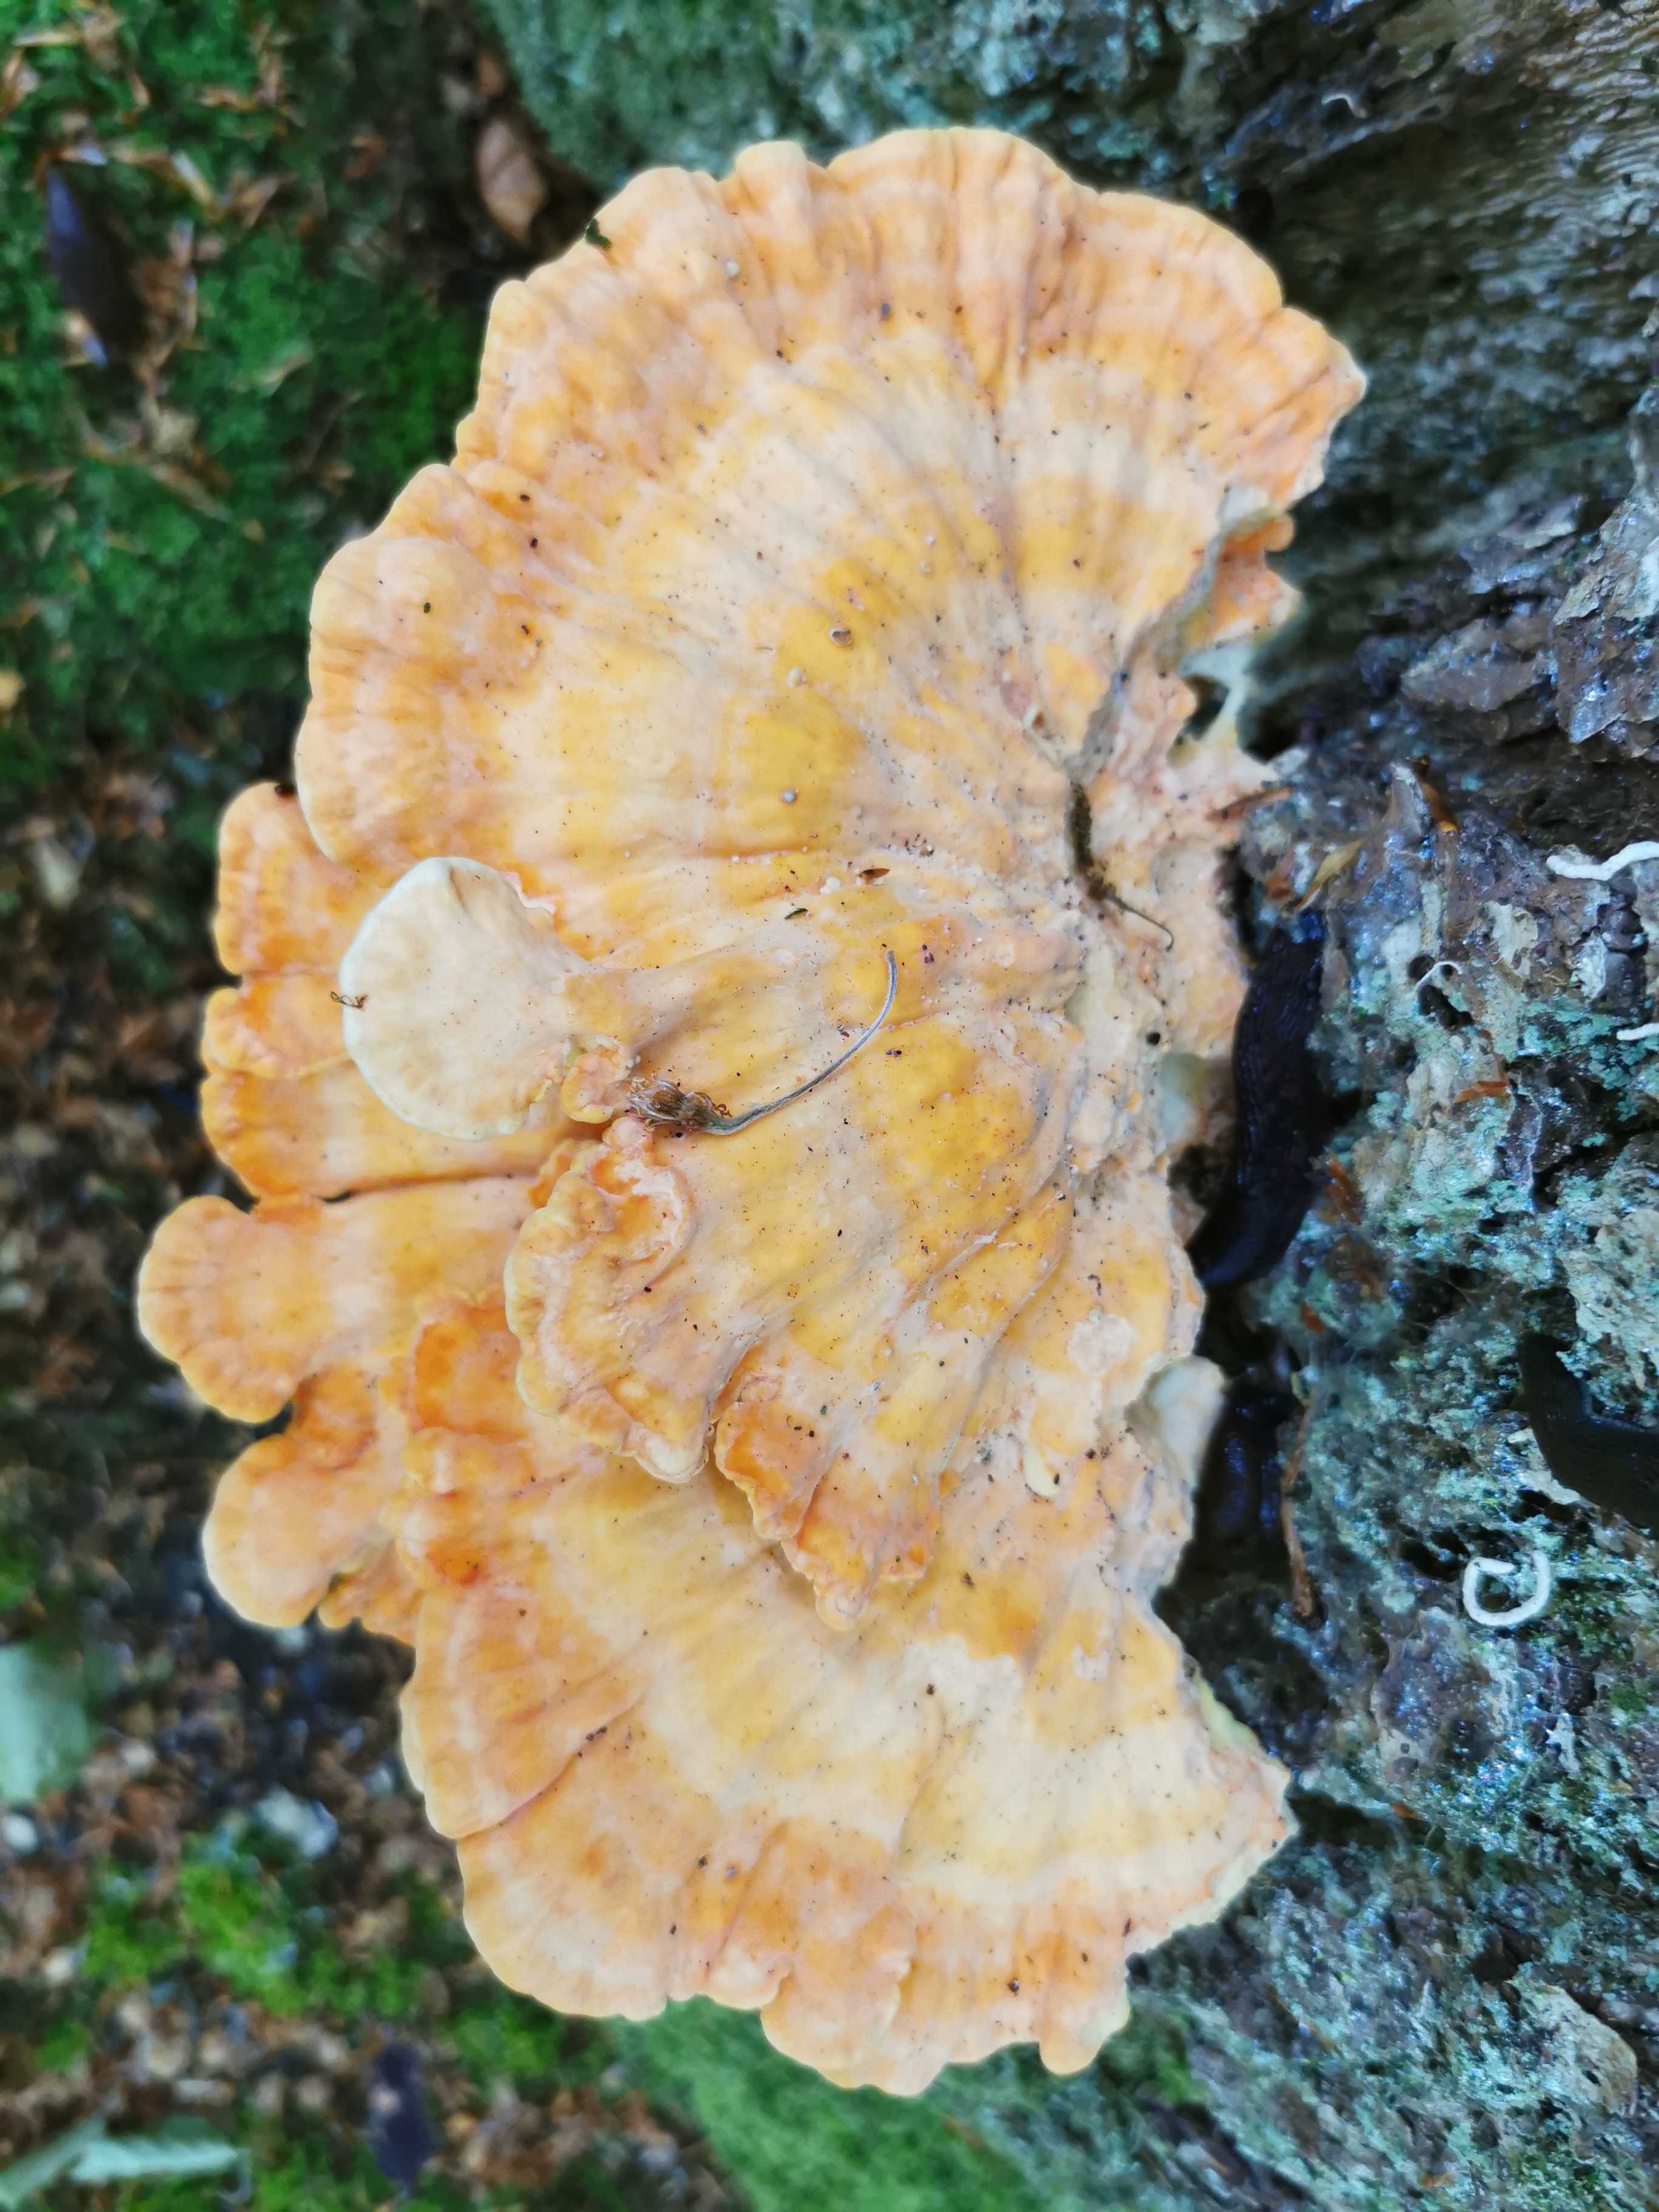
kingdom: Fungi
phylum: Basidiomycota
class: Agaricomycetes
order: Polyporales
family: Laetiporaceae
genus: Laetiporus
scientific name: Laetiporus sulphureus
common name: svovlporesvamp
